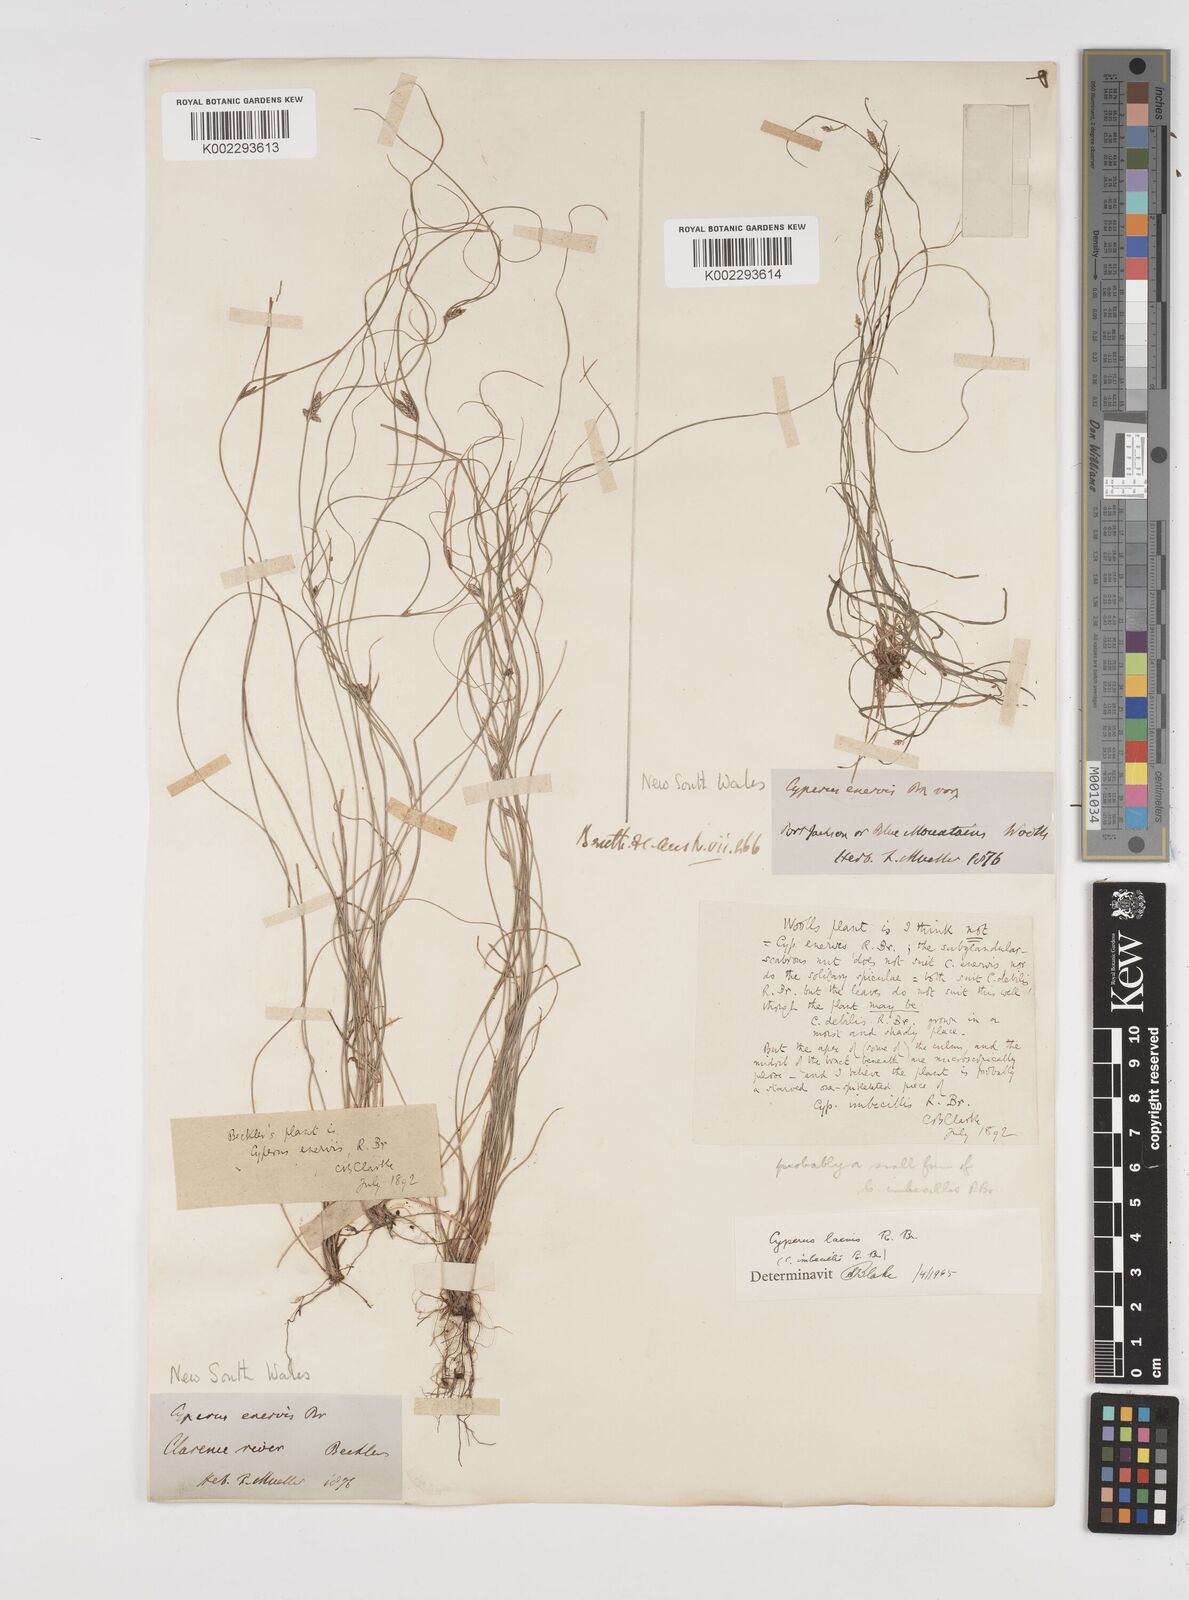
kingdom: Plantae
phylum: Tracheophyta
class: Liliopsida
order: Poales
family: Cyperaceae
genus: Cyperus
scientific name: Cyperus laevis
